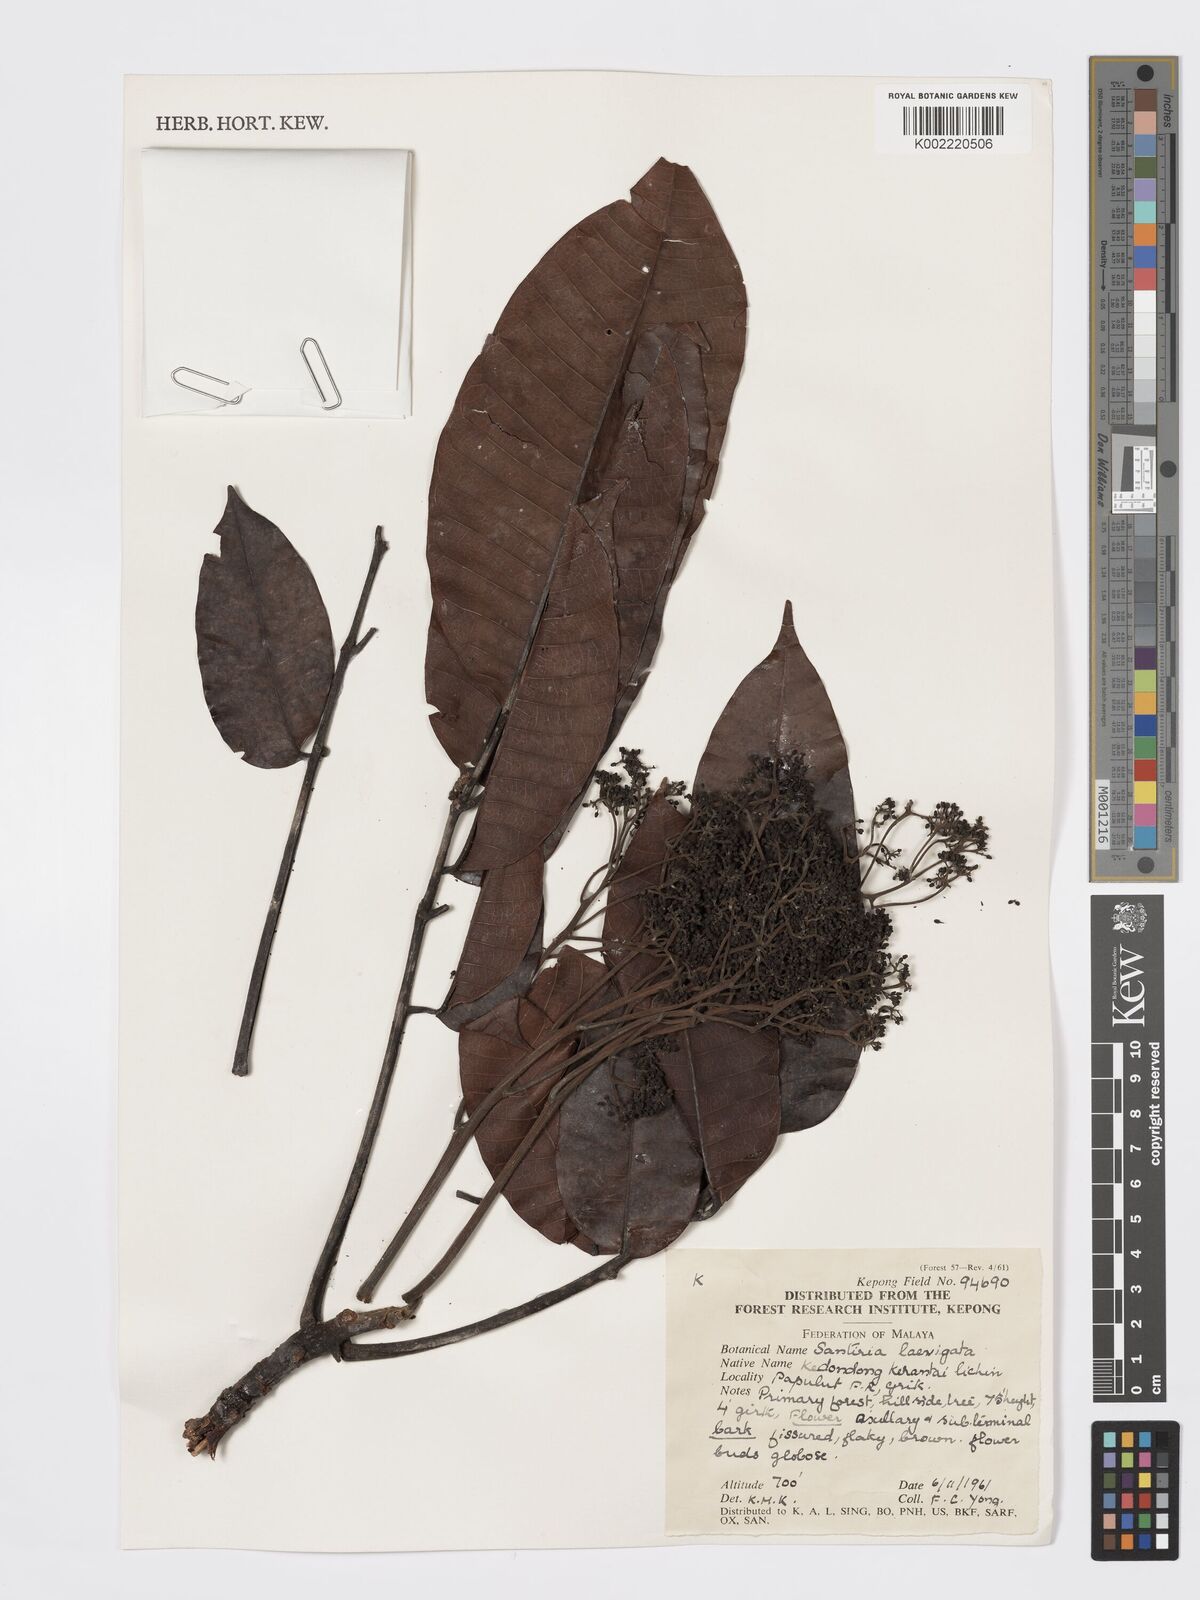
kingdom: Plantae
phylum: Tracheophyta
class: Magnoliopsida
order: Sapindales
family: Burseraceae
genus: Santiria
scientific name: Santiria laevigata
